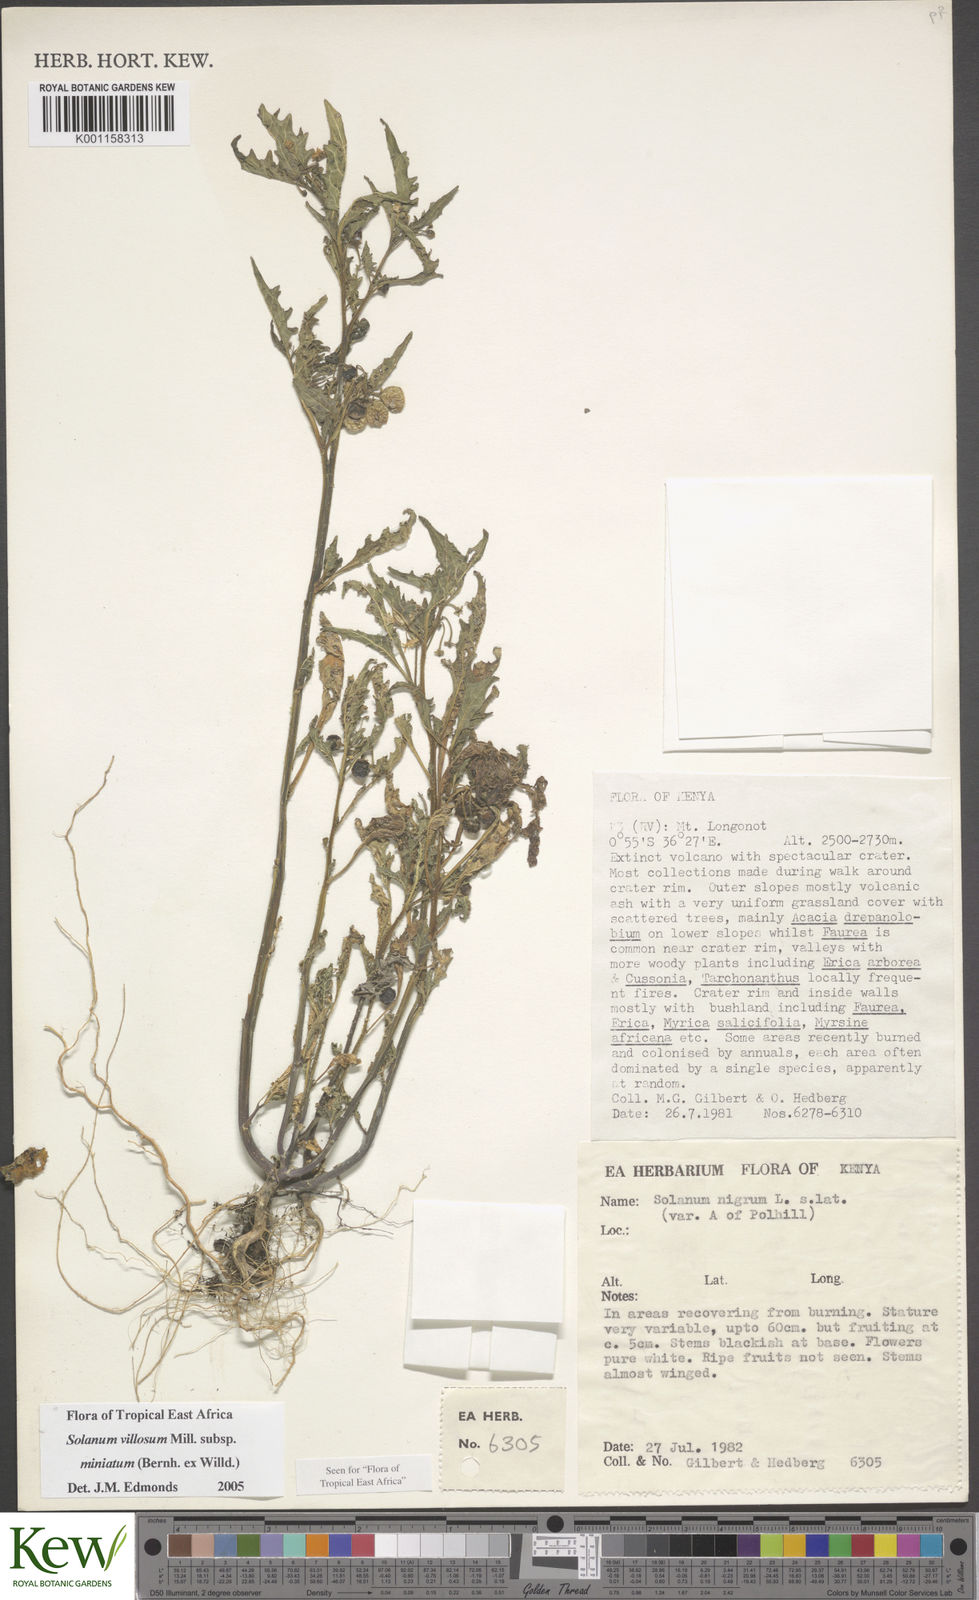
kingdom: Plantae
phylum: Tracheophyta
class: Magnoliopsida
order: Solanales
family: Solanaceae
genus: Solanum
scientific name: Solanum villosum
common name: Red nightshade
